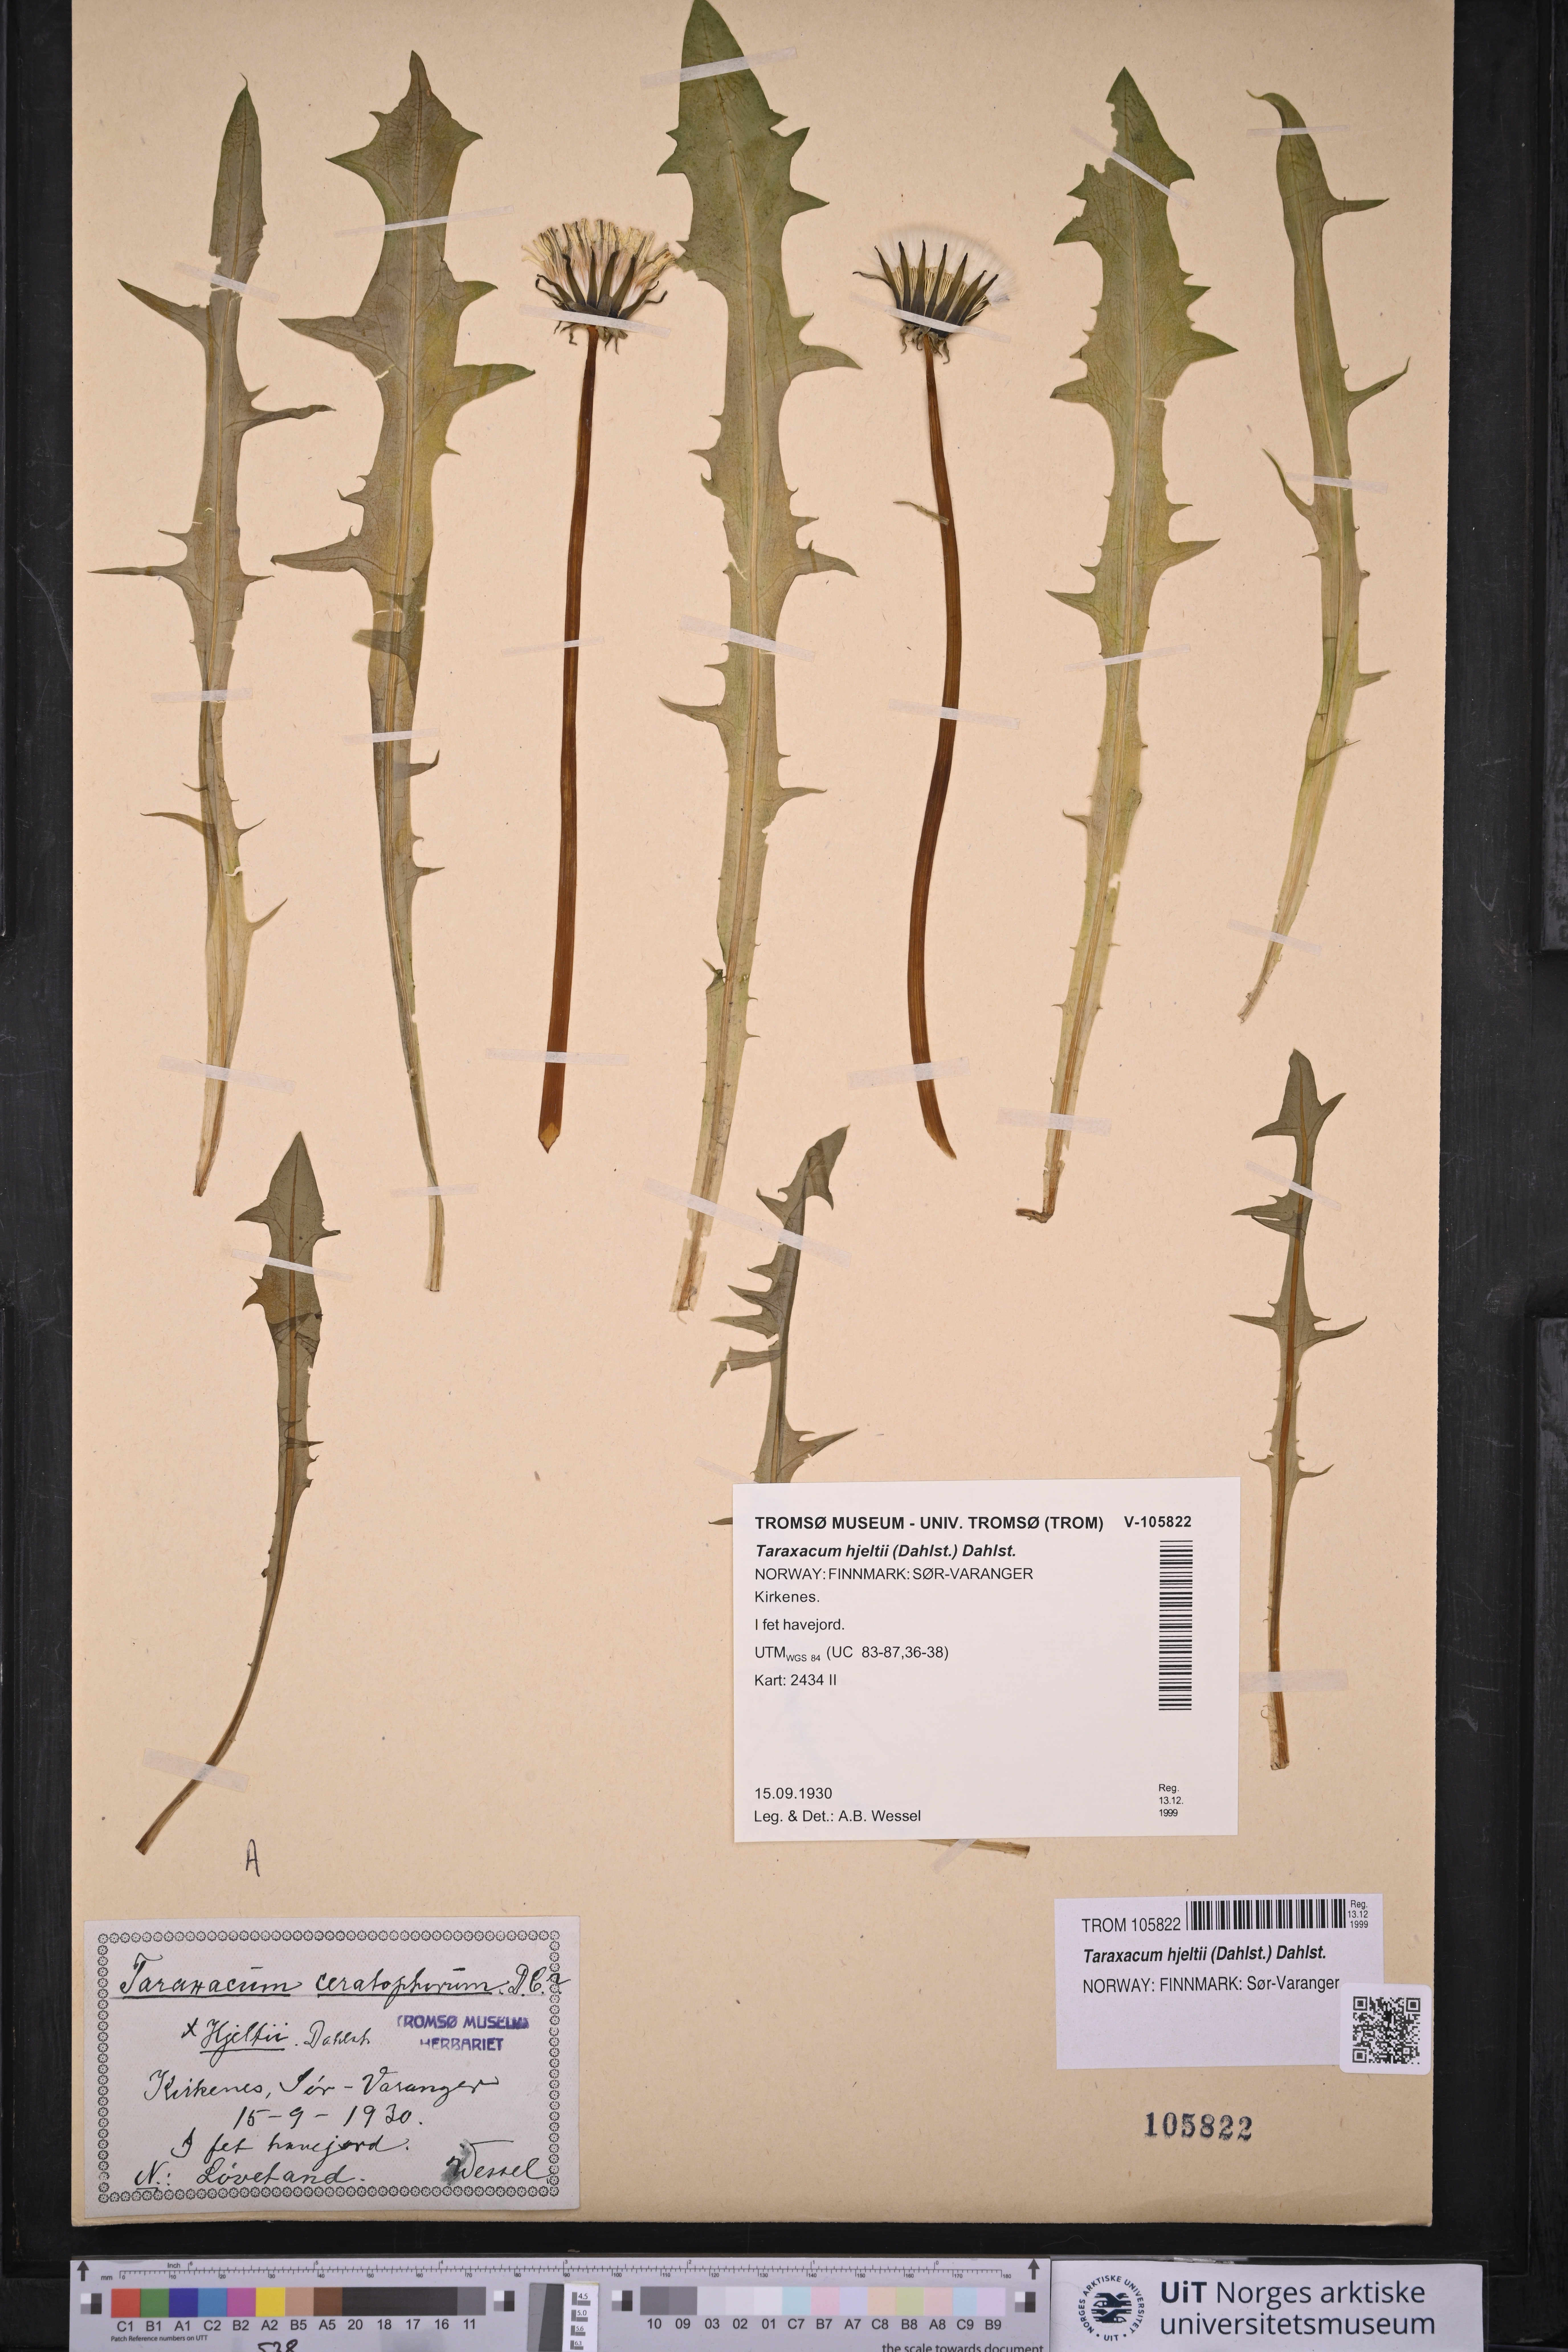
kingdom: Plantae
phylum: Tracheophyta
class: Magnoliopsida
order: Asterales
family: Asteraceae
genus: Taraxacum
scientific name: Taraxacum hjeltii
